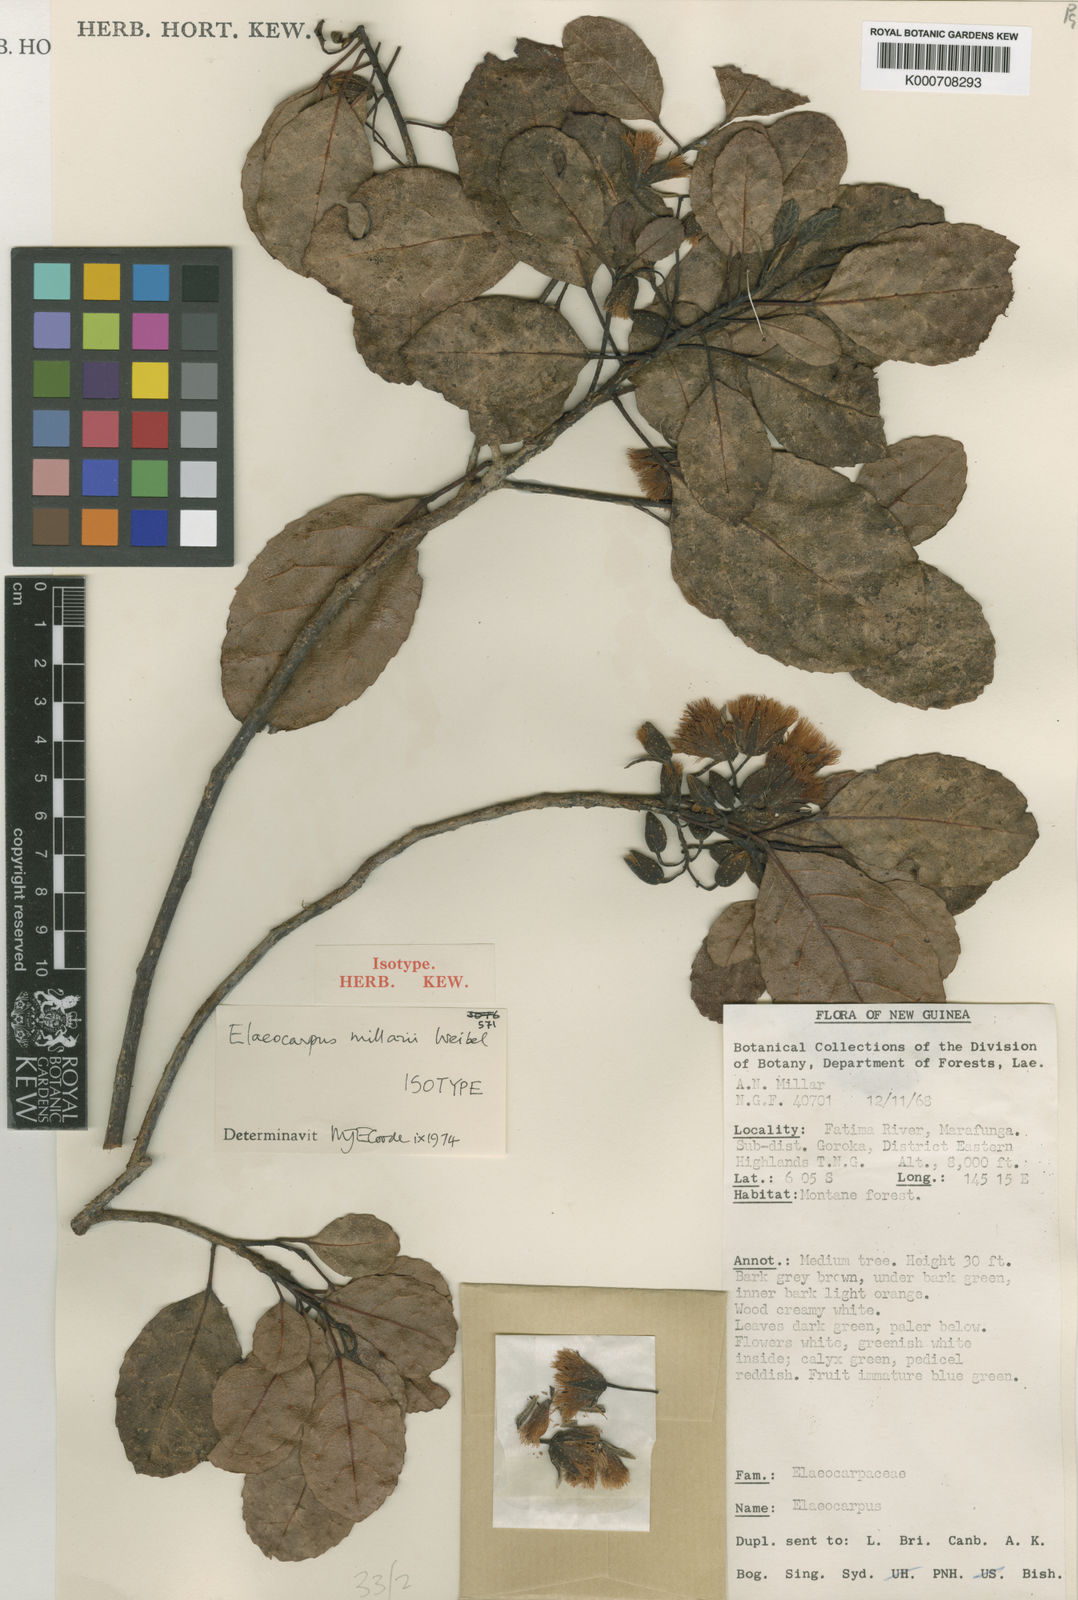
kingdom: Plantae
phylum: Tracheophyta
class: Magnoliopsida
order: Oxalidales
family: Elaeocarpaceae
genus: Elaeocarpus
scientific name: Elaeocarpus millarii
